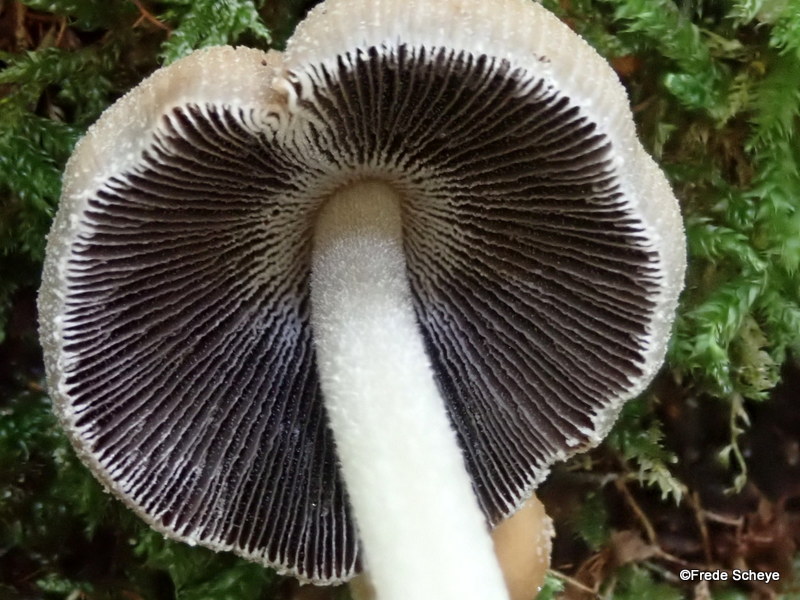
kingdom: Fungi
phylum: Basidiomycota
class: Agaricomycetes
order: Agaricales
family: Psathyrellaceae
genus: Coprinellus
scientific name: Coprinellus micaceus
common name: glimmer-blækhat
